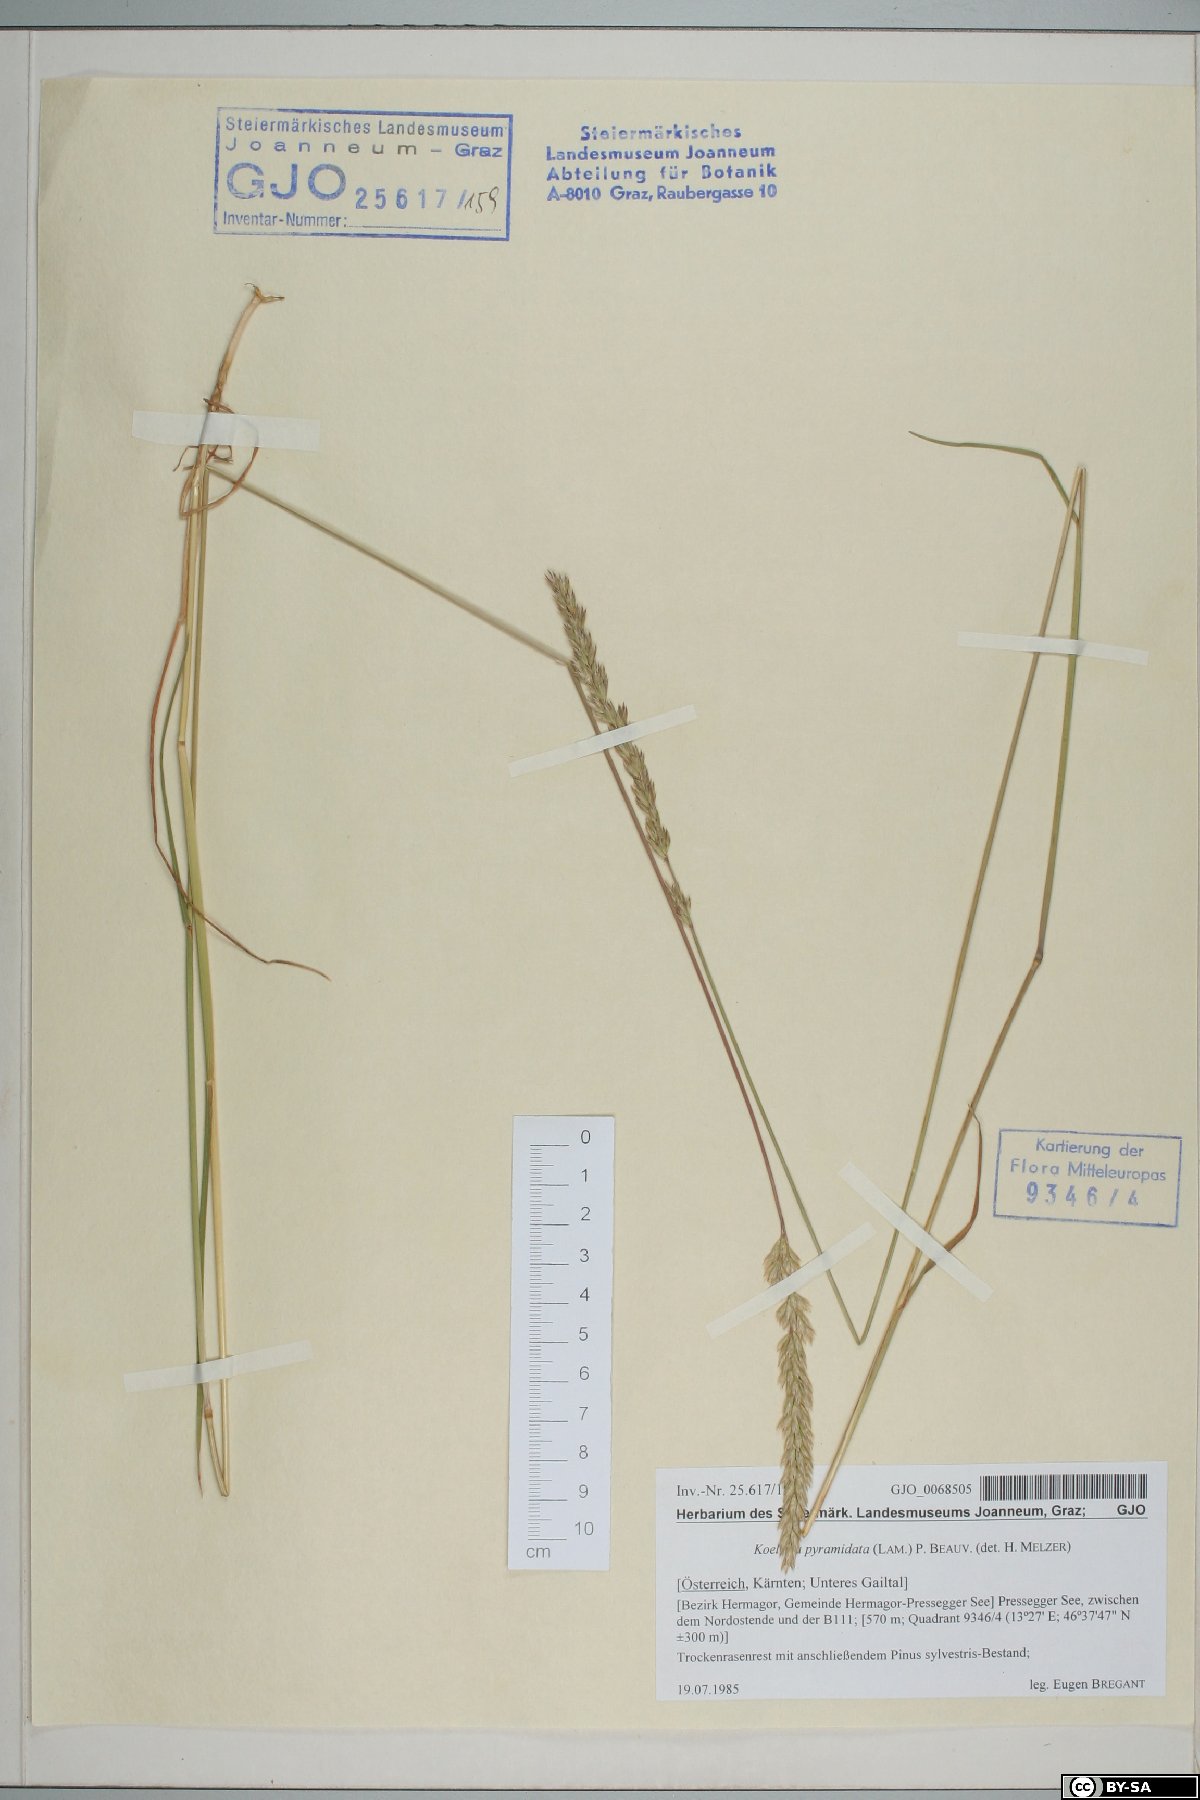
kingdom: Plantae
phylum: Tracheophyta
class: Liliopsida
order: Poales
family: Poaceae
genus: Koeleria
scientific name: Koeleria pyramidata
